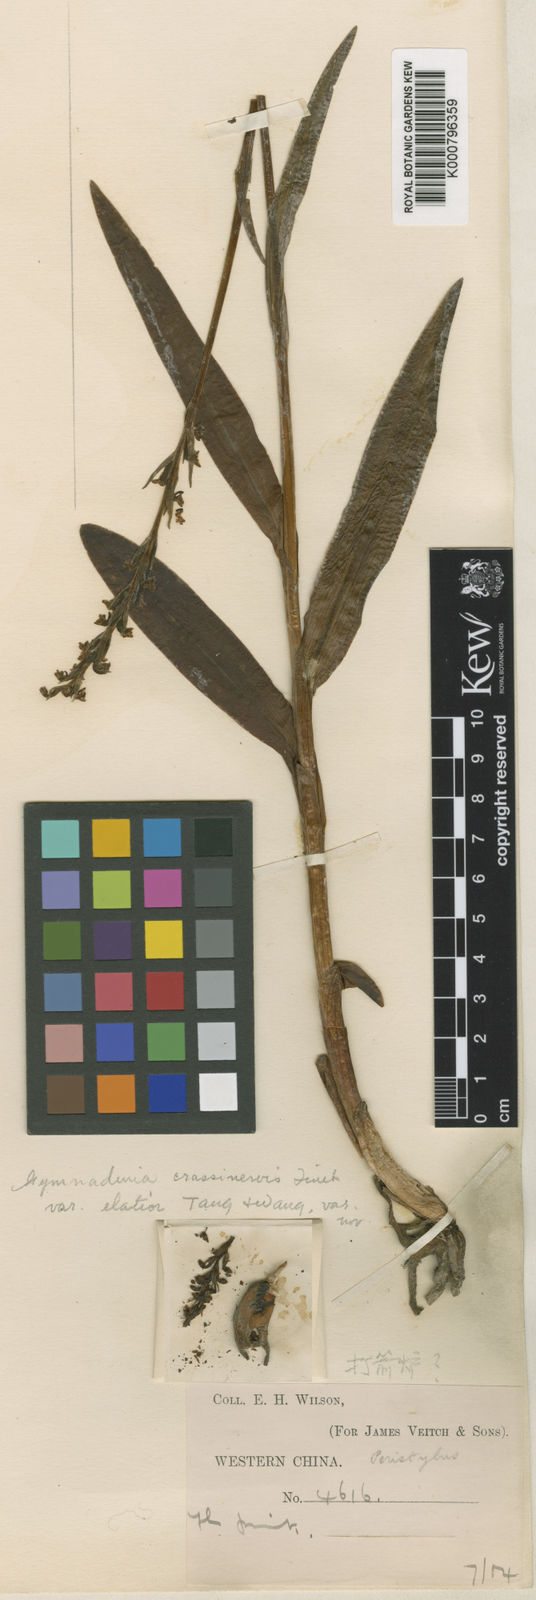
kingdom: Plantae
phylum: Tracheophyta
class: Liliopsida
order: Asparagales
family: Orchidaceae
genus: Gymnadenia
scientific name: Gymnadenia crassinervis
